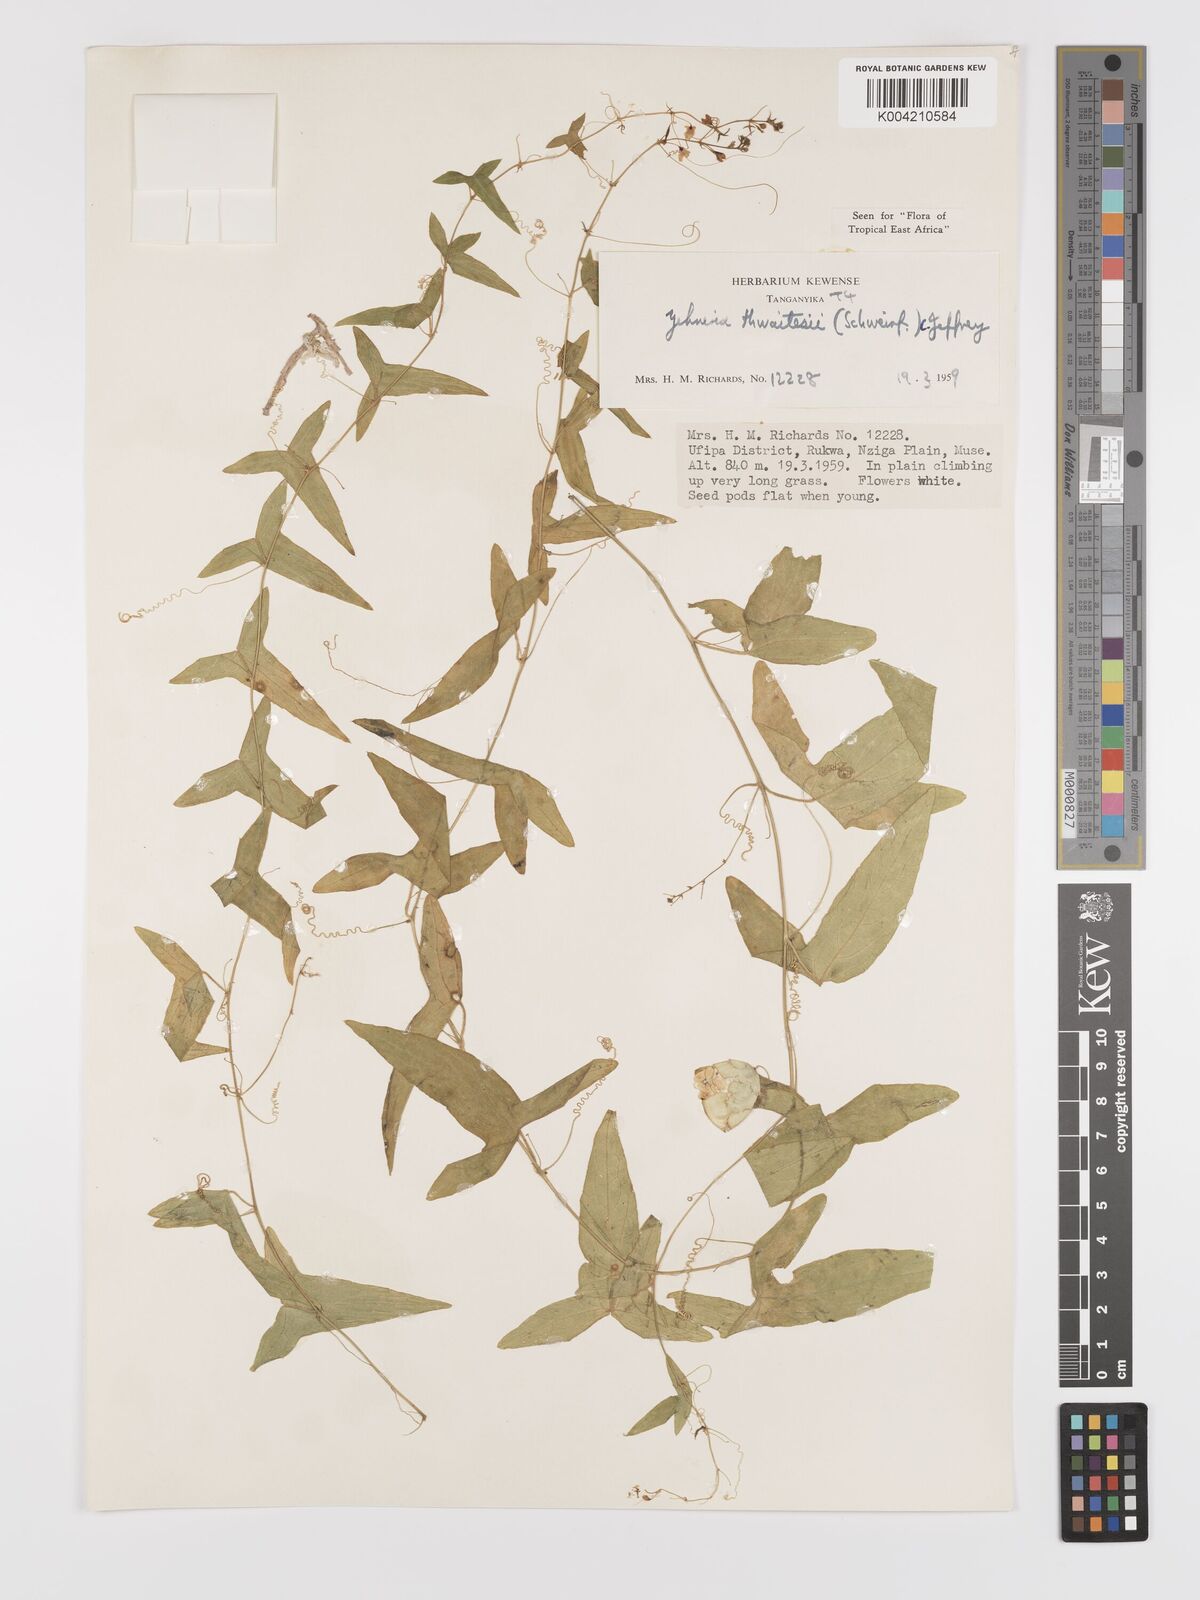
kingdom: Plantae
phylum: Tracheophyta
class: Magnoliopsida
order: Cucurbitales
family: Cucurbitaceae
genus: Zehneria
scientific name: Zehneria thwaitesii
